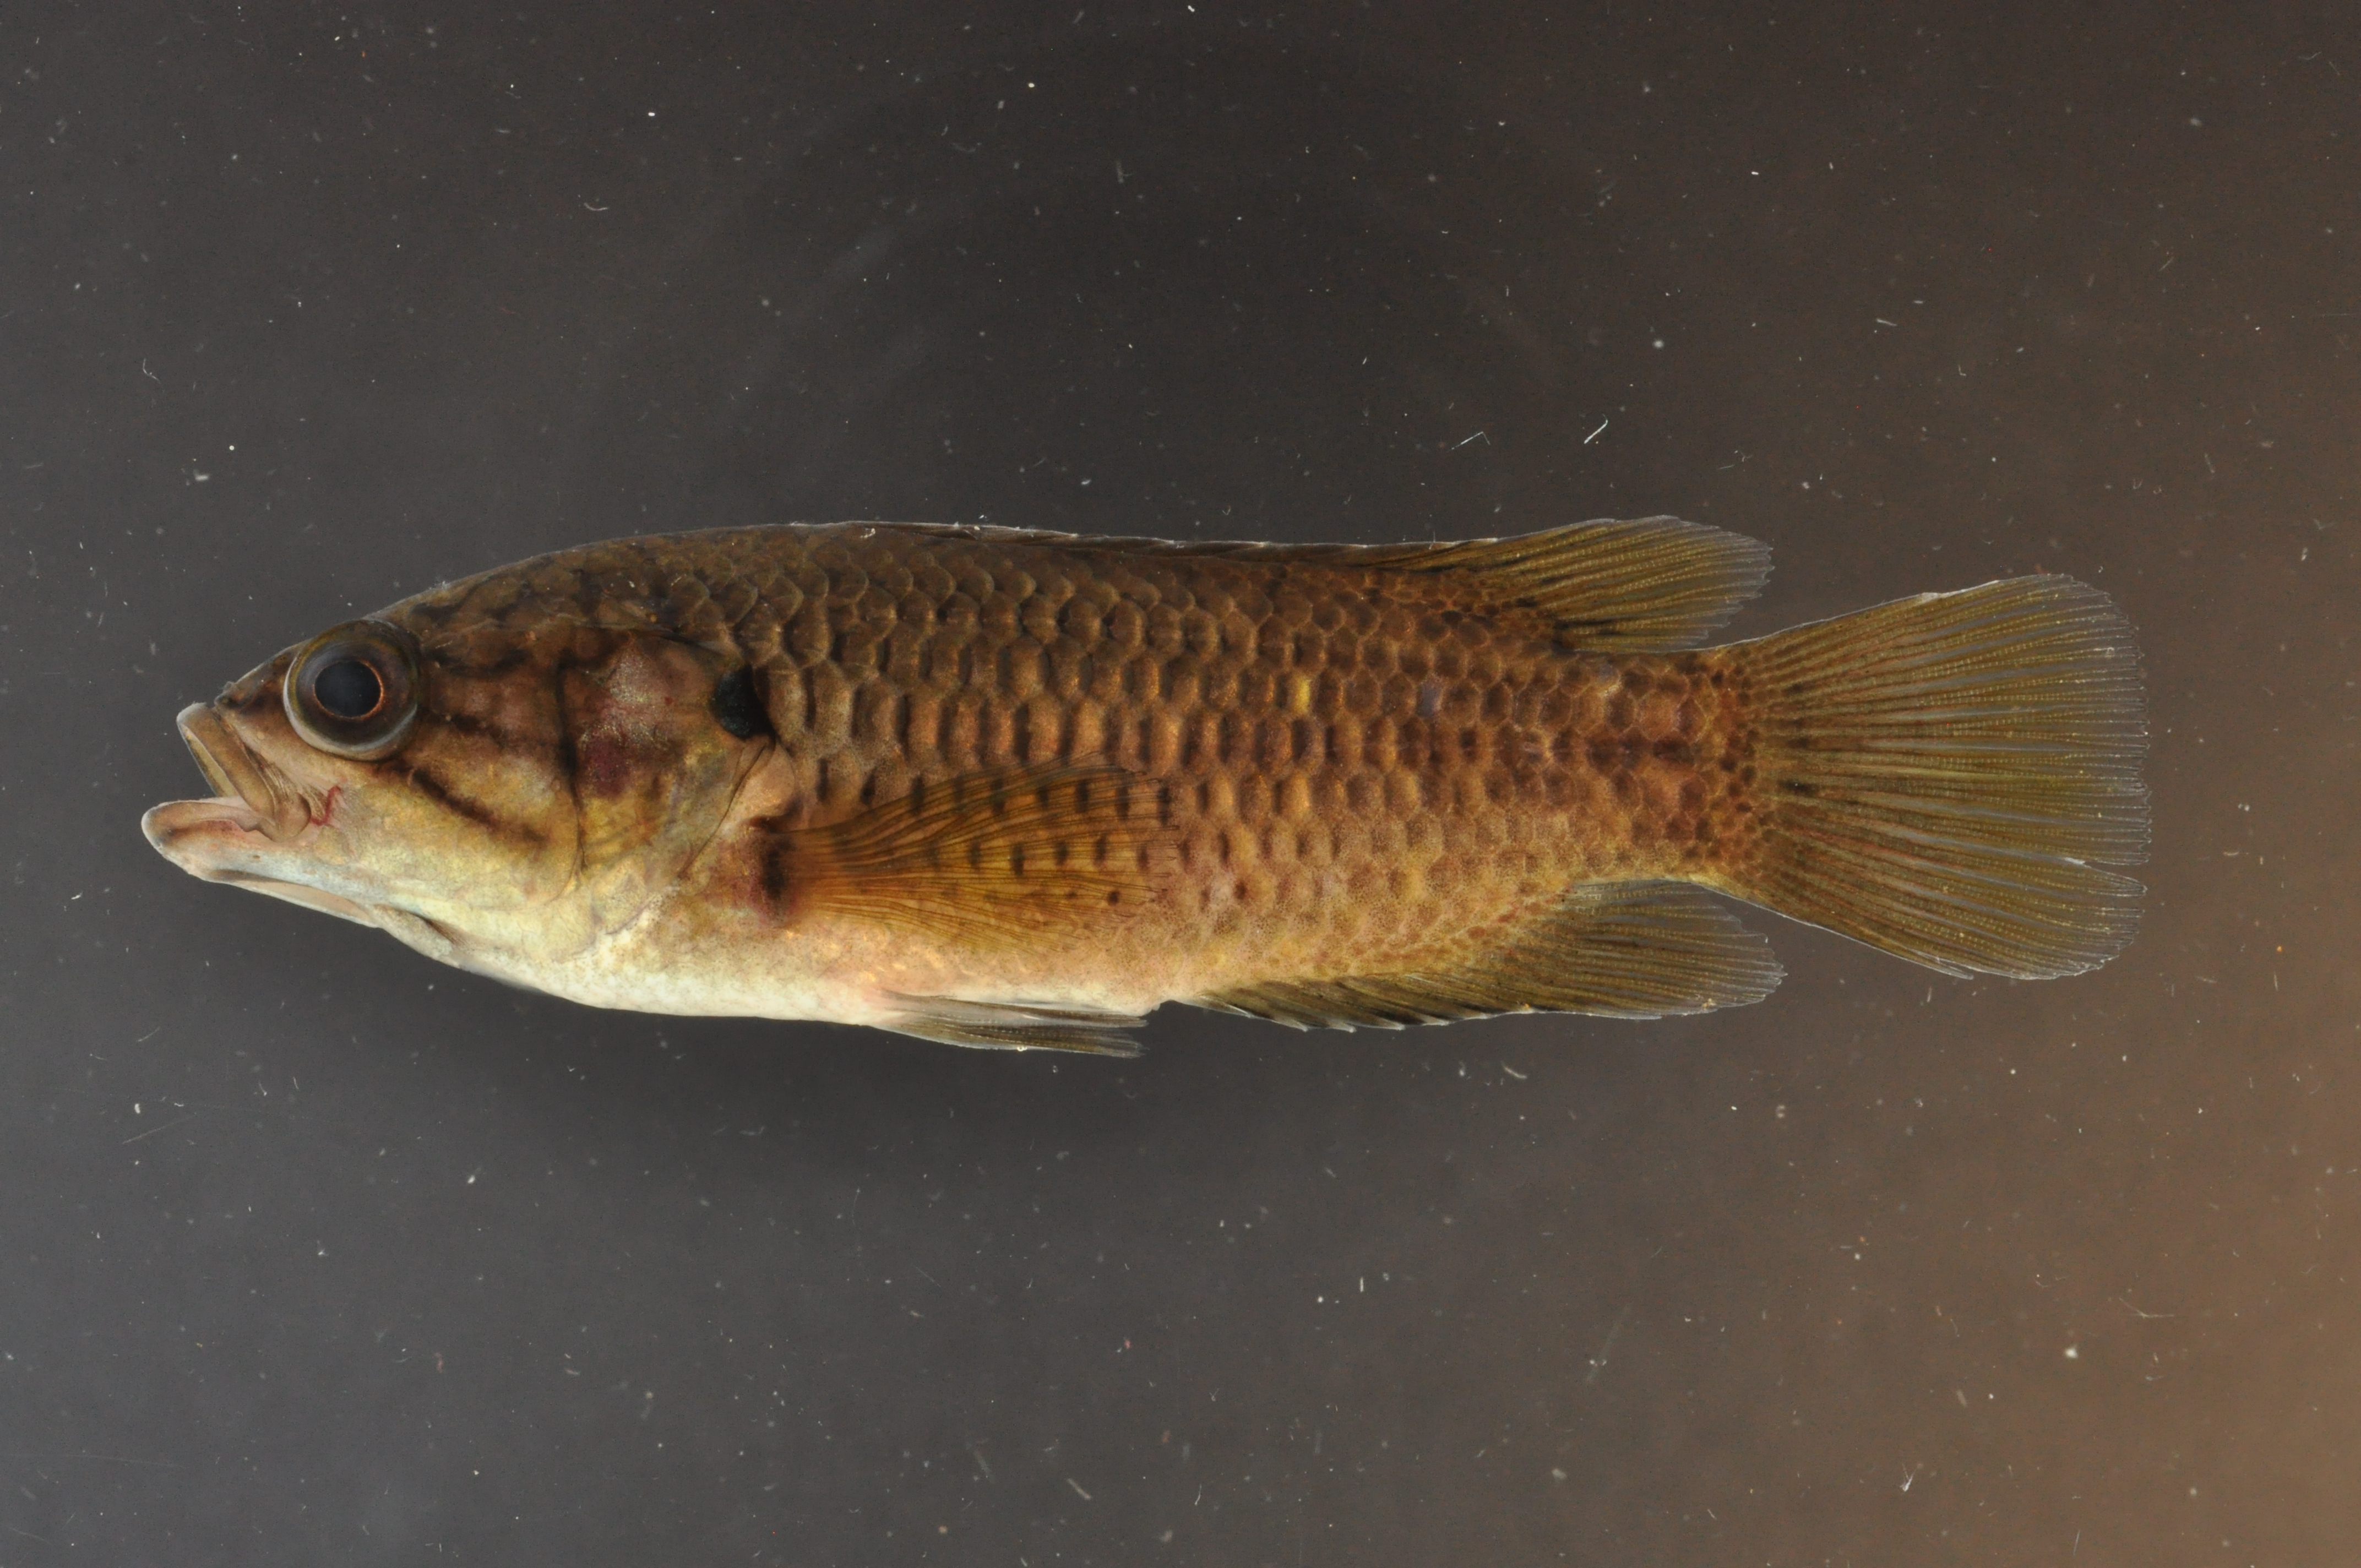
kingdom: Animalia
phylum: Chordata
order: Perciformes
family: Anabantidae
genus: Sandelia
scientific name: Sandelia capensis
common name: Cape kurper
